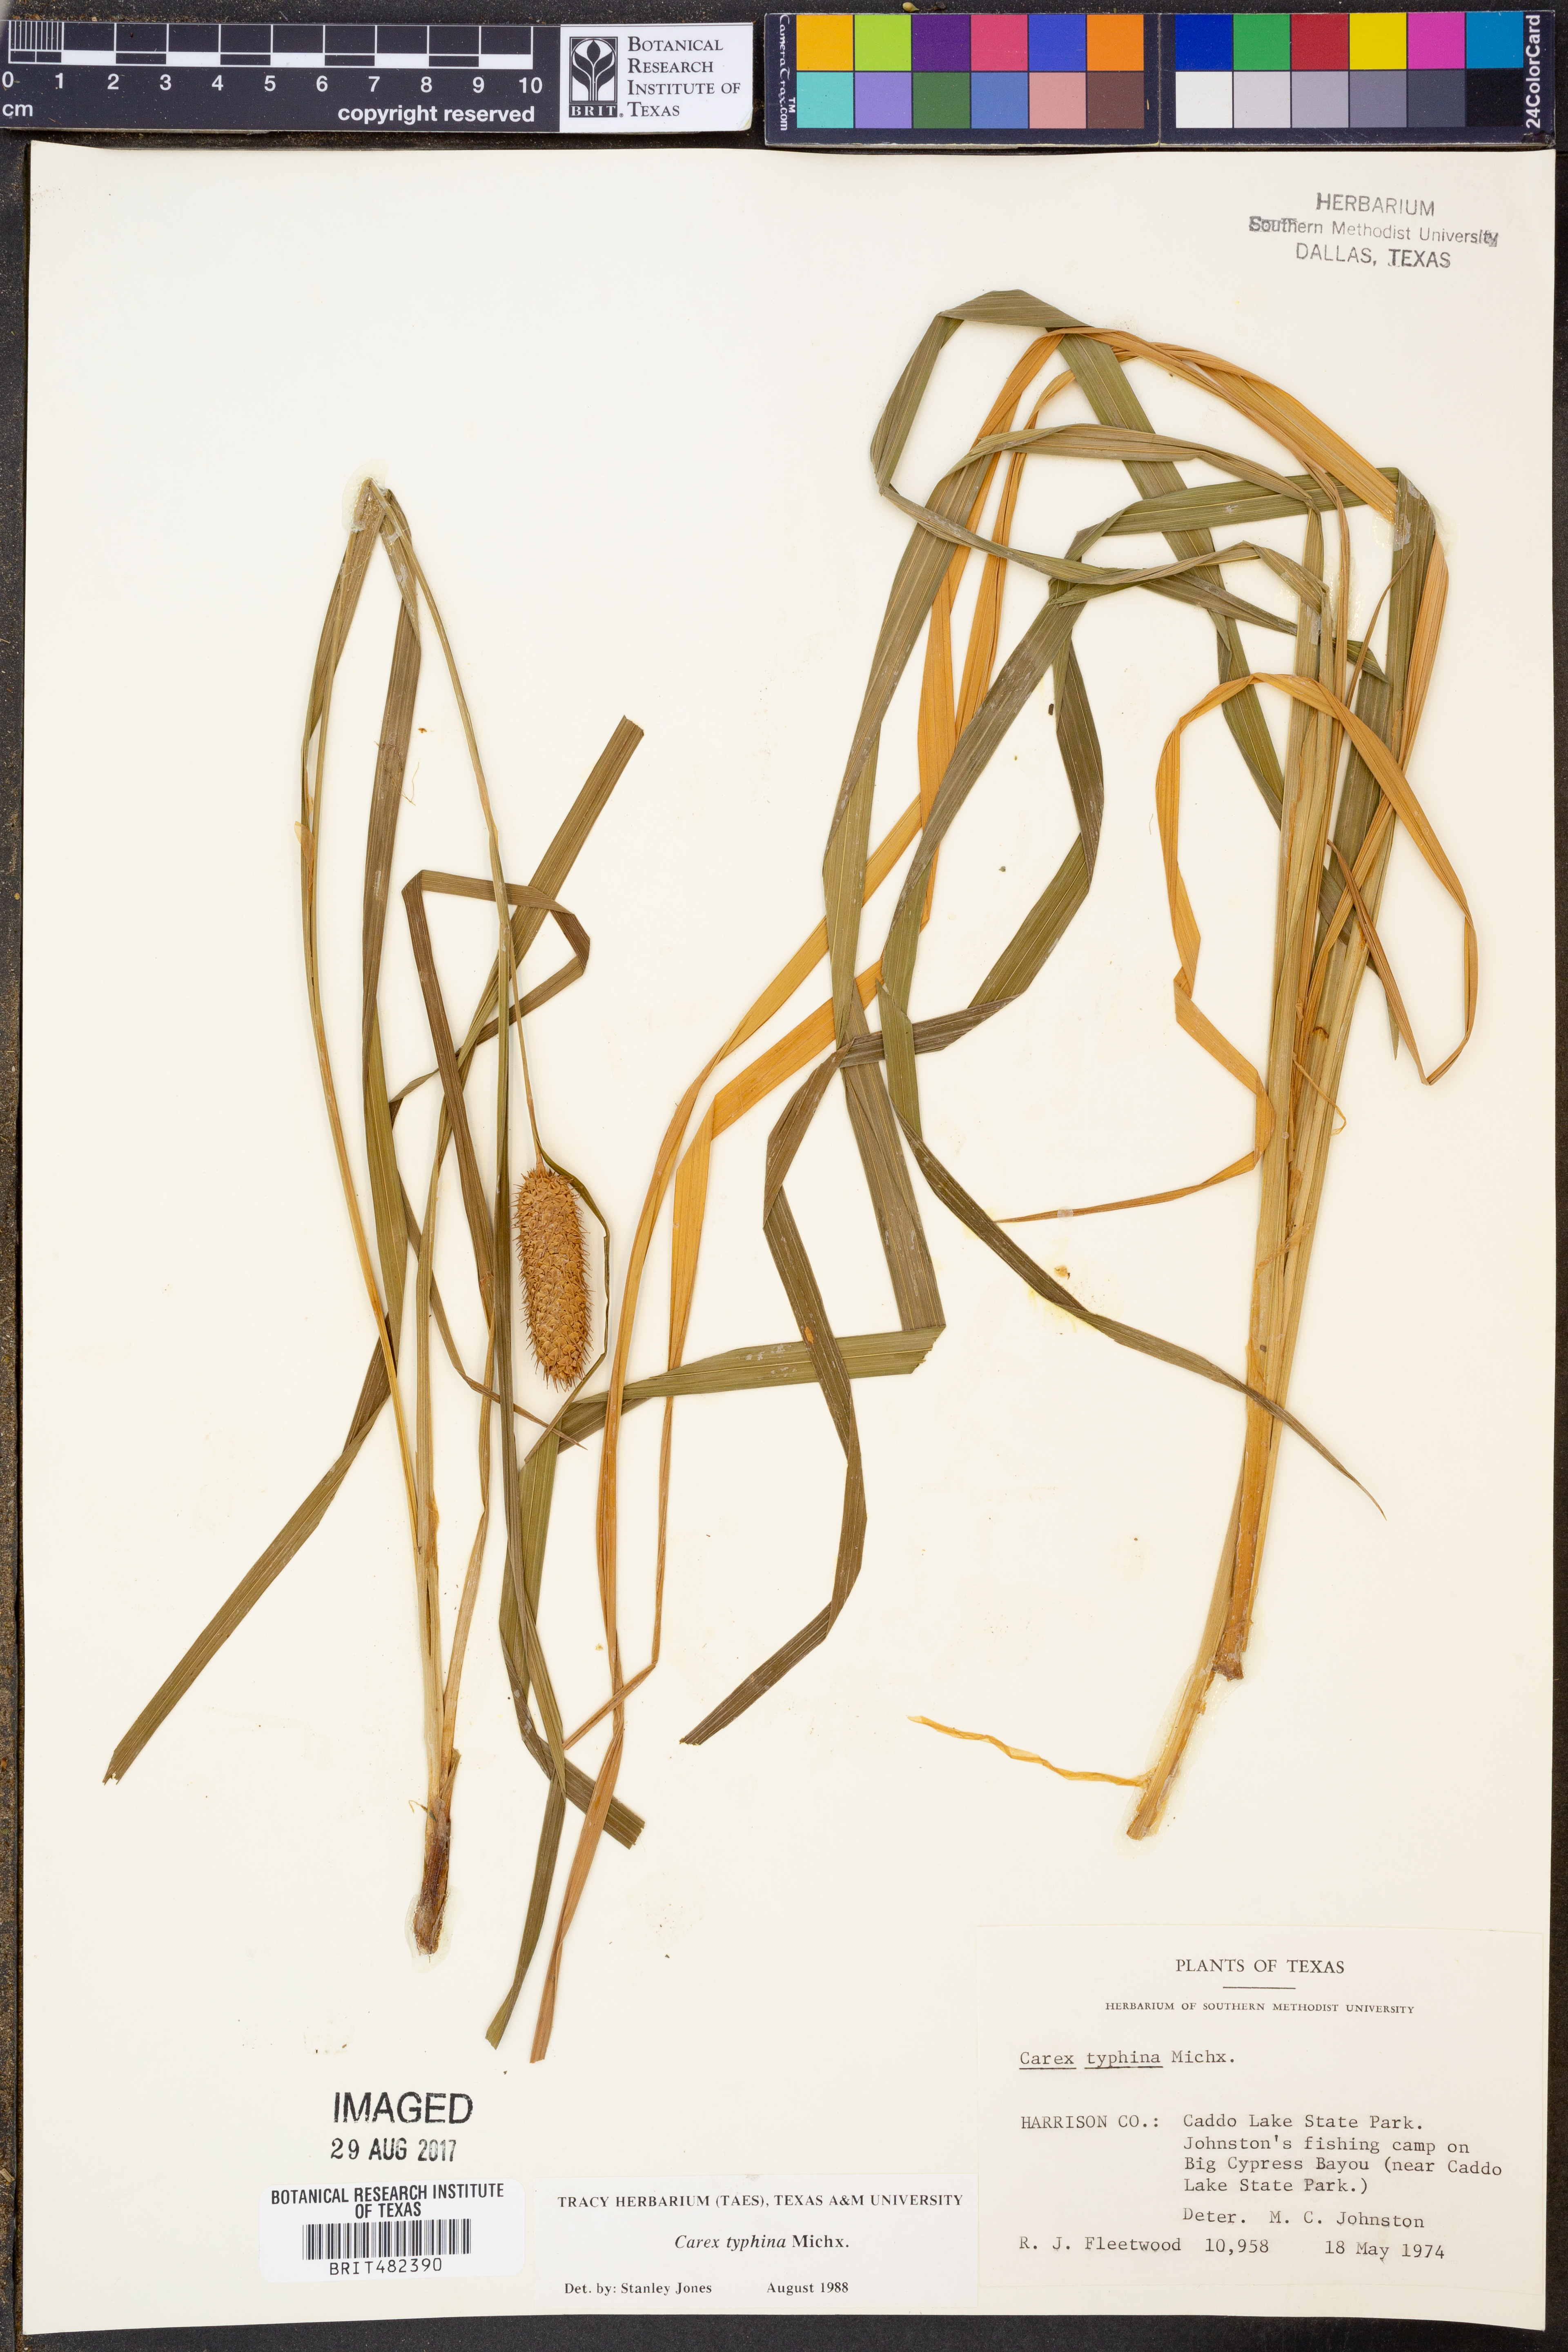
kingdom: Plantae
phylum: Tracheophyta
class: Liliopsida
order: Poales
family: Cyperaceae
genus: Carex
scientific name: Carex typhina
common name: Cattail sedge
